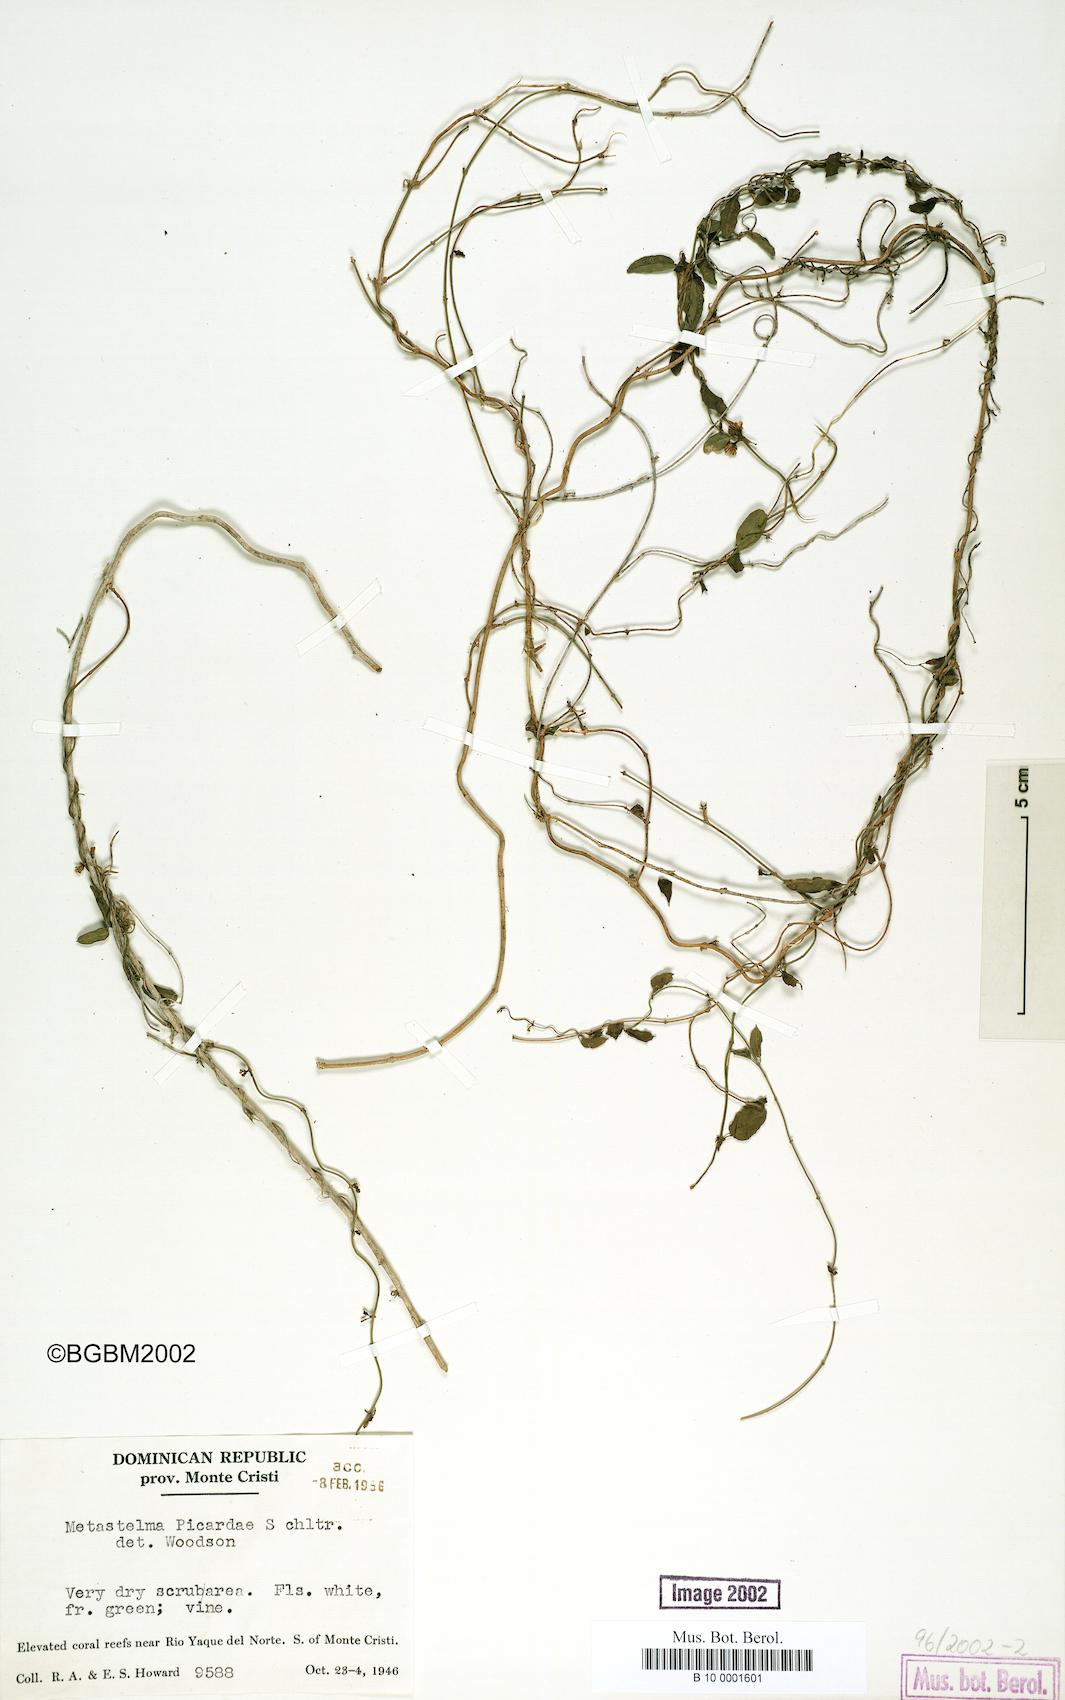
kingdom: Plantae
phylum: Tracheophyta
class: Magnoliopsida
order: Gentianales
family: Apocynaceae
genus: Metastelma
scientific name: Metastelma picardae
